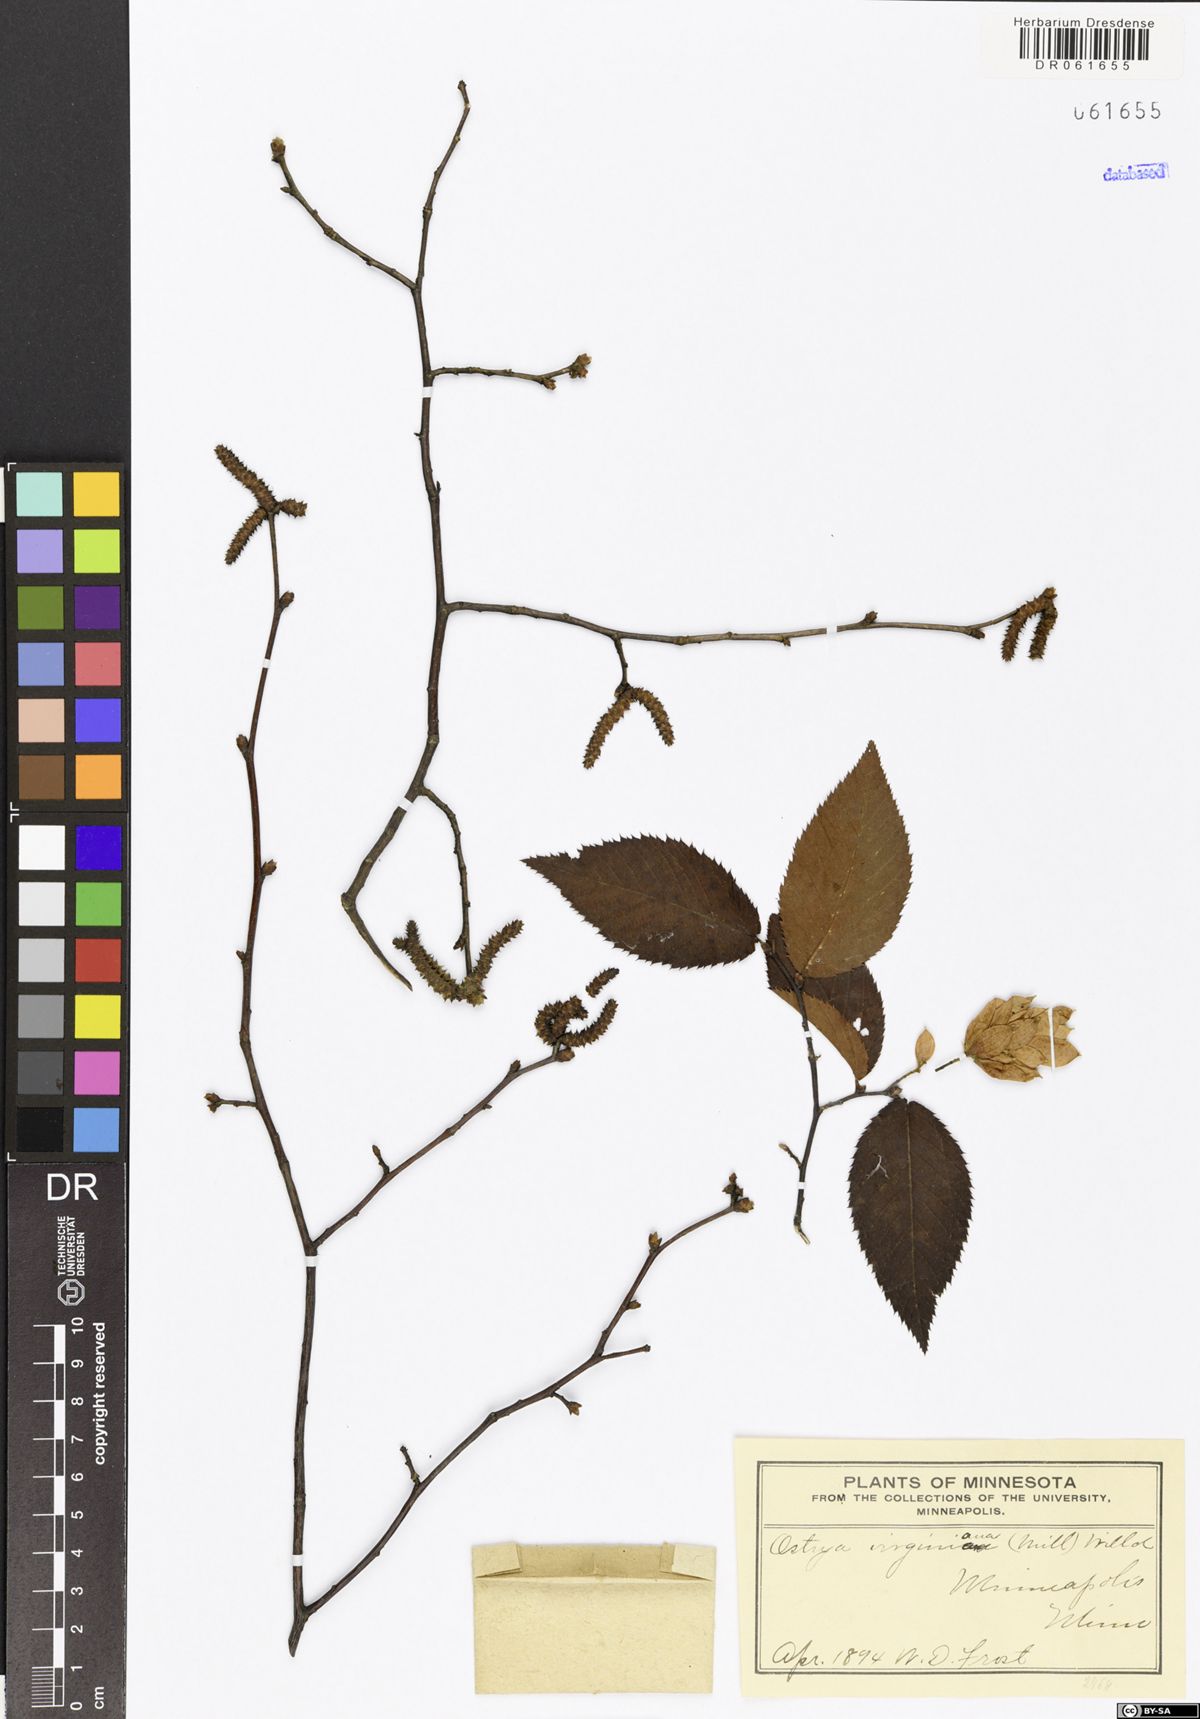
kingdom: Plantae
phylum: Tracheophyta
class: Magnoliopsida
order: Fagales
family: Betulaceae
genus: Ostrya
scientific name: Ostrya virginiana
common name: Ironwood
